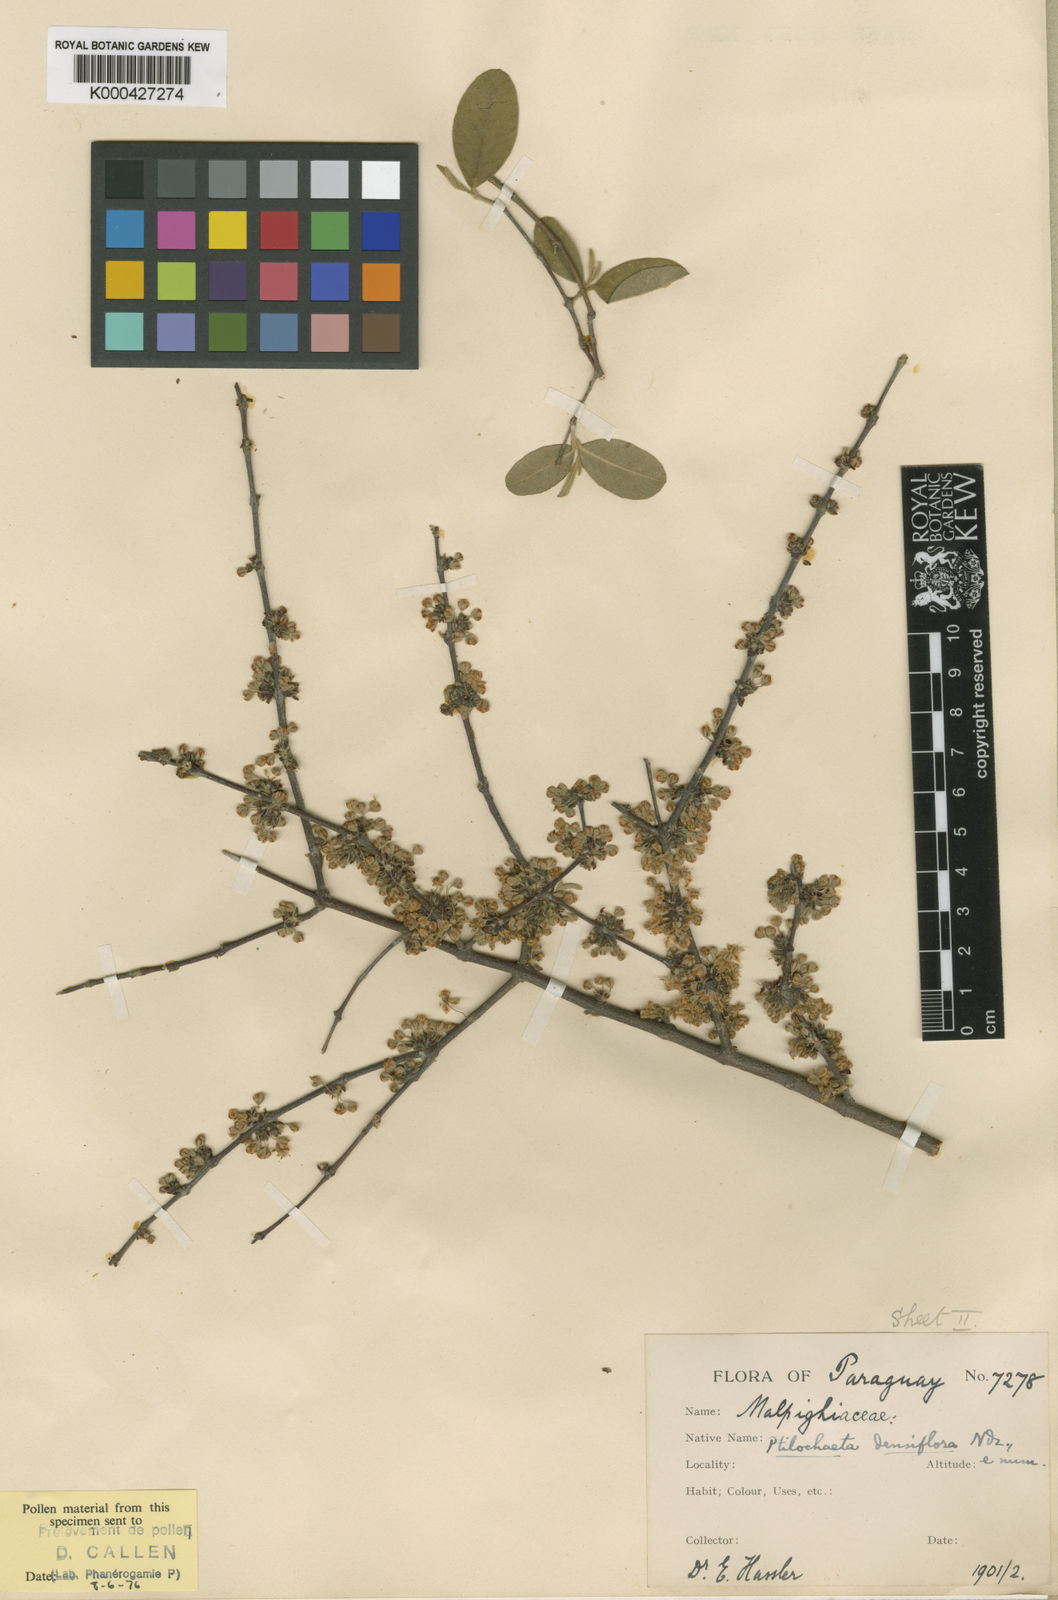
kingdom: Plantae
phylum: Tracheophyta
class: Magnoliopsida
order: Malpighiales
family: Malpighiaceae
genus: Ptilochaeta
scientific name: Ptilochaeta densiflora
